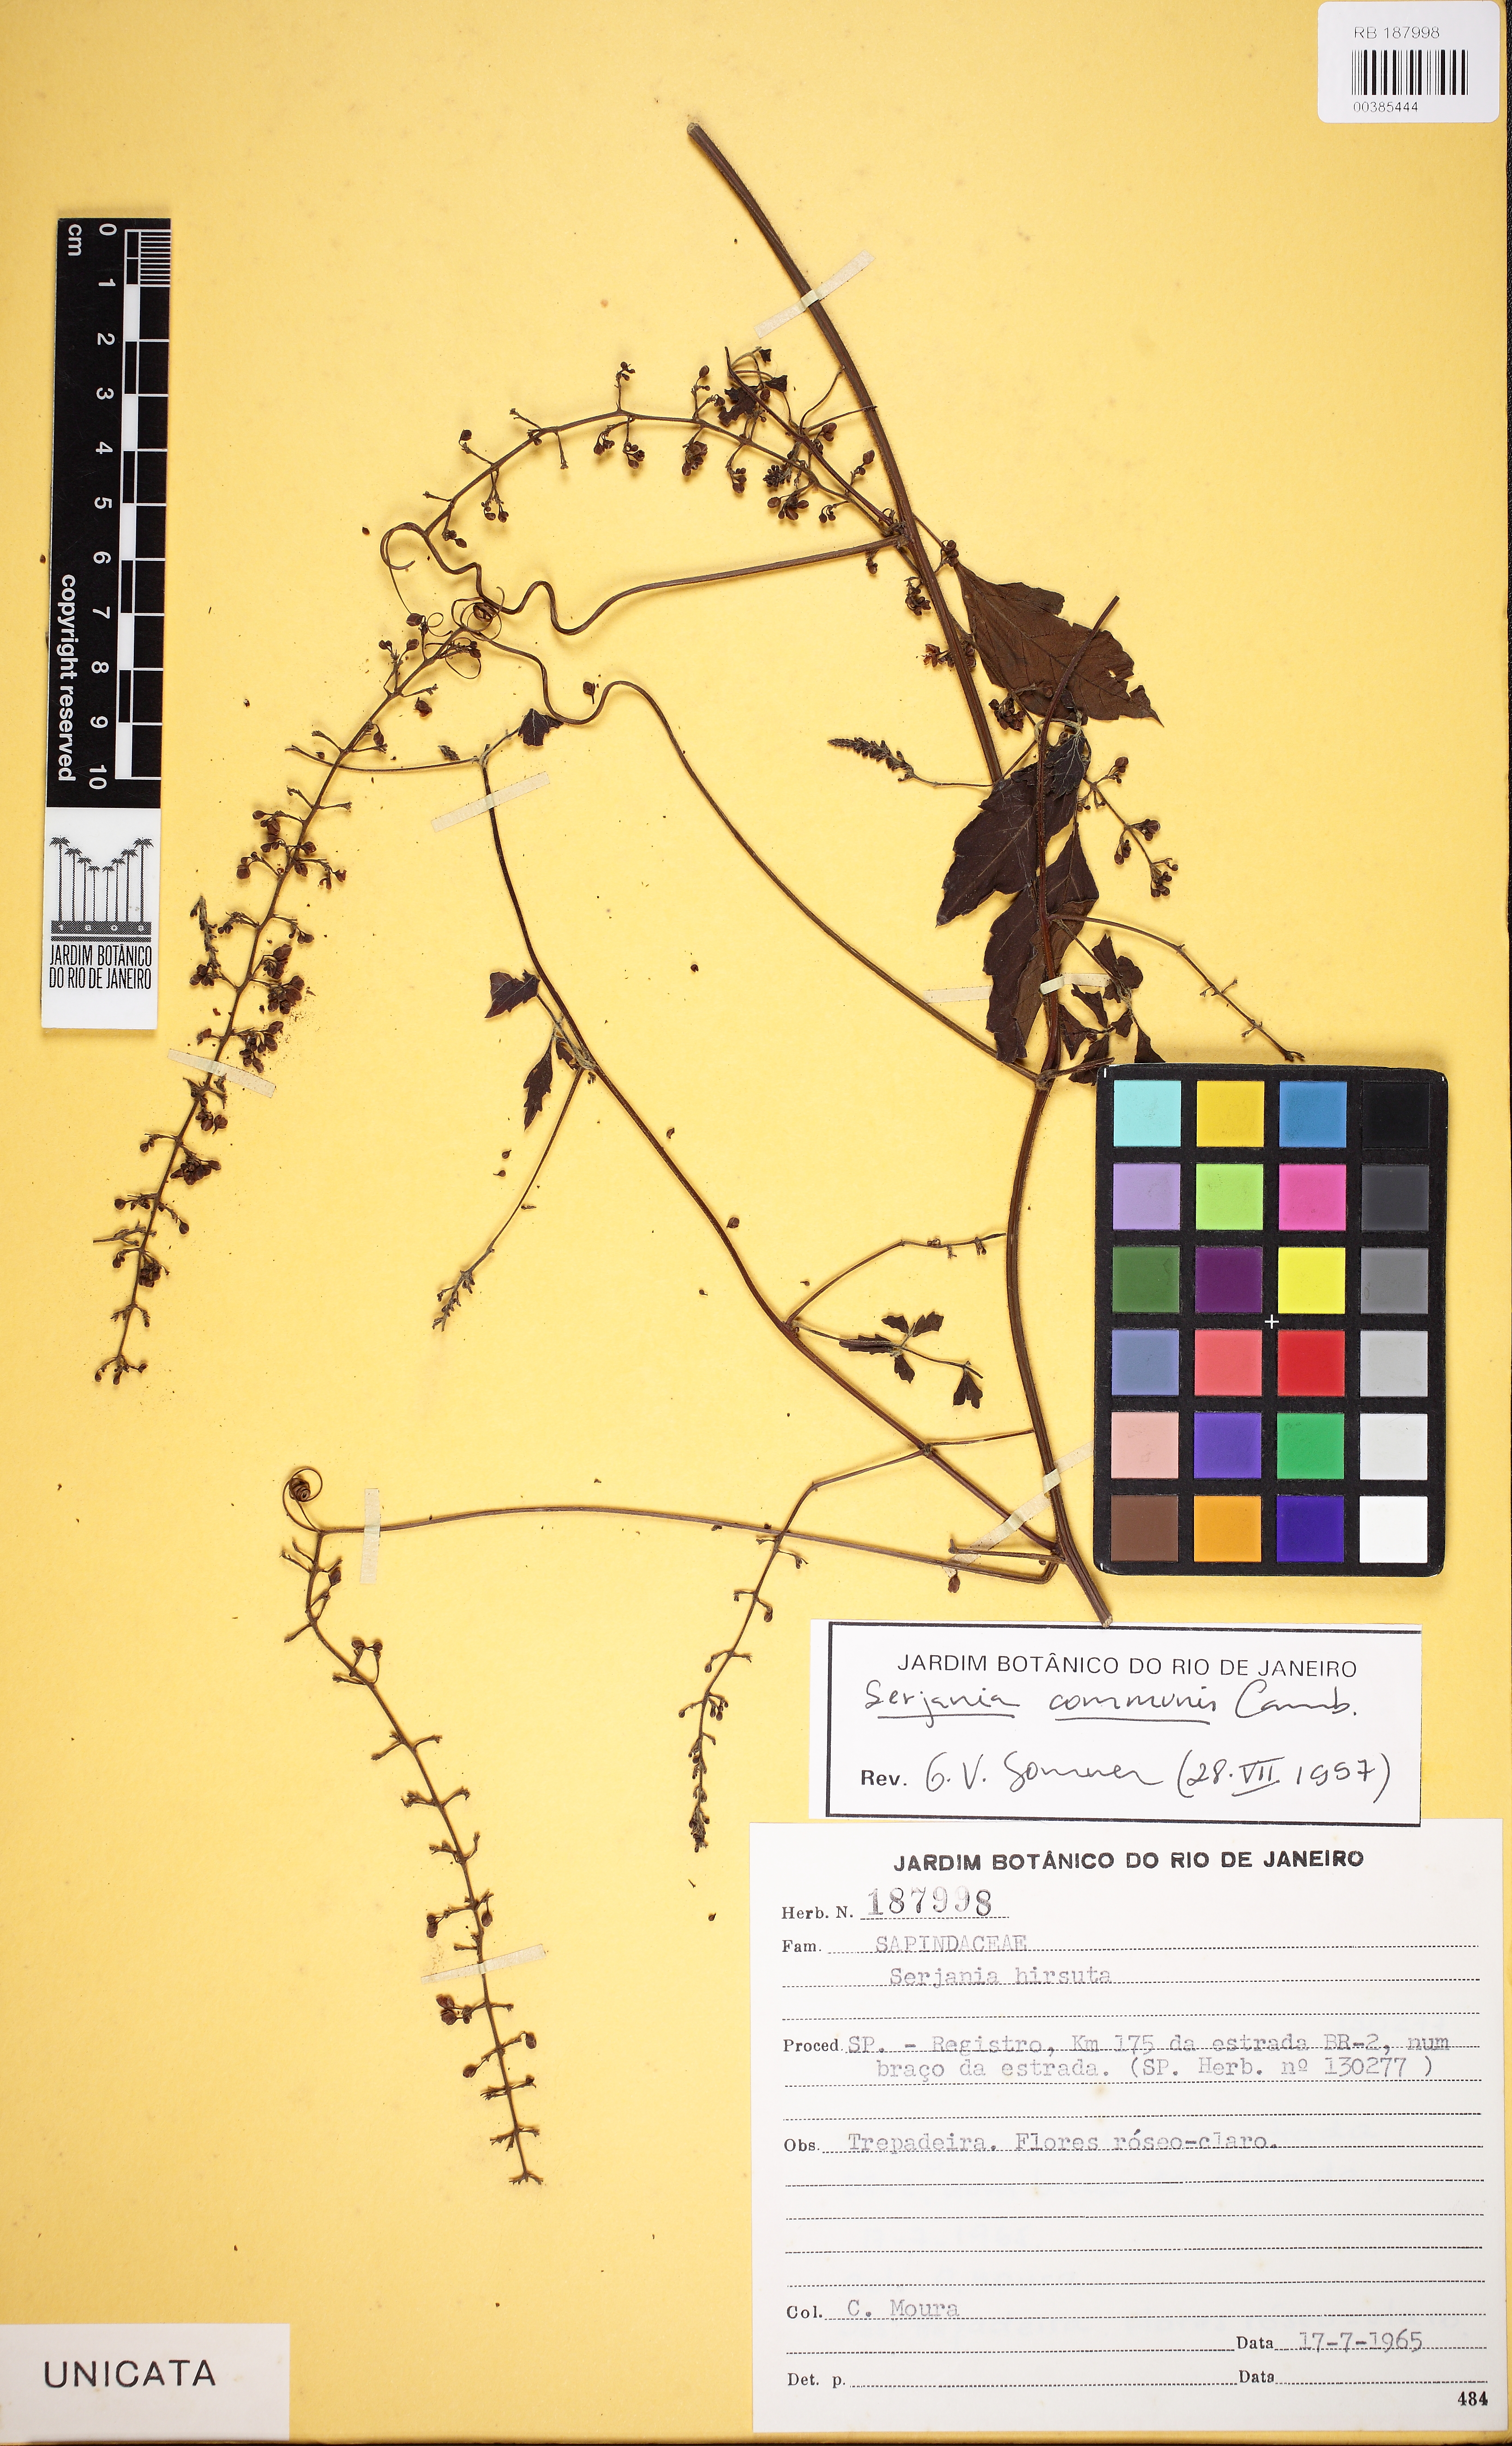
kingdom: Plantae
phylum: Tracheophyta
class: Magnoliopsida
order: Sapindales
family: Sapindaceae
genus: Serjania
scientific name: Serjania communis
